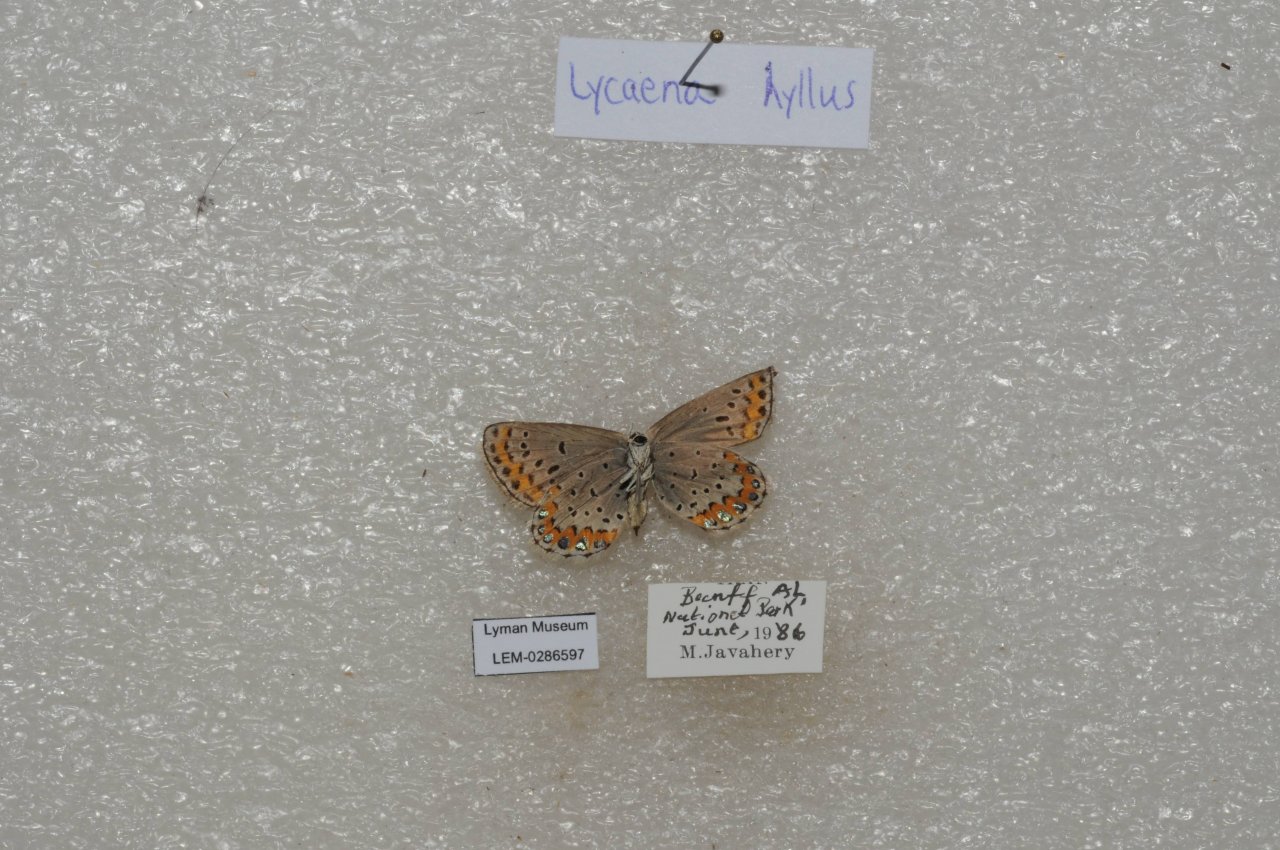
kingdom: Animalia
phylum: Arthropoda
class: Insecta
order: Lepidoptera
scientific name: Lepidoptera
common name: Butterflies
